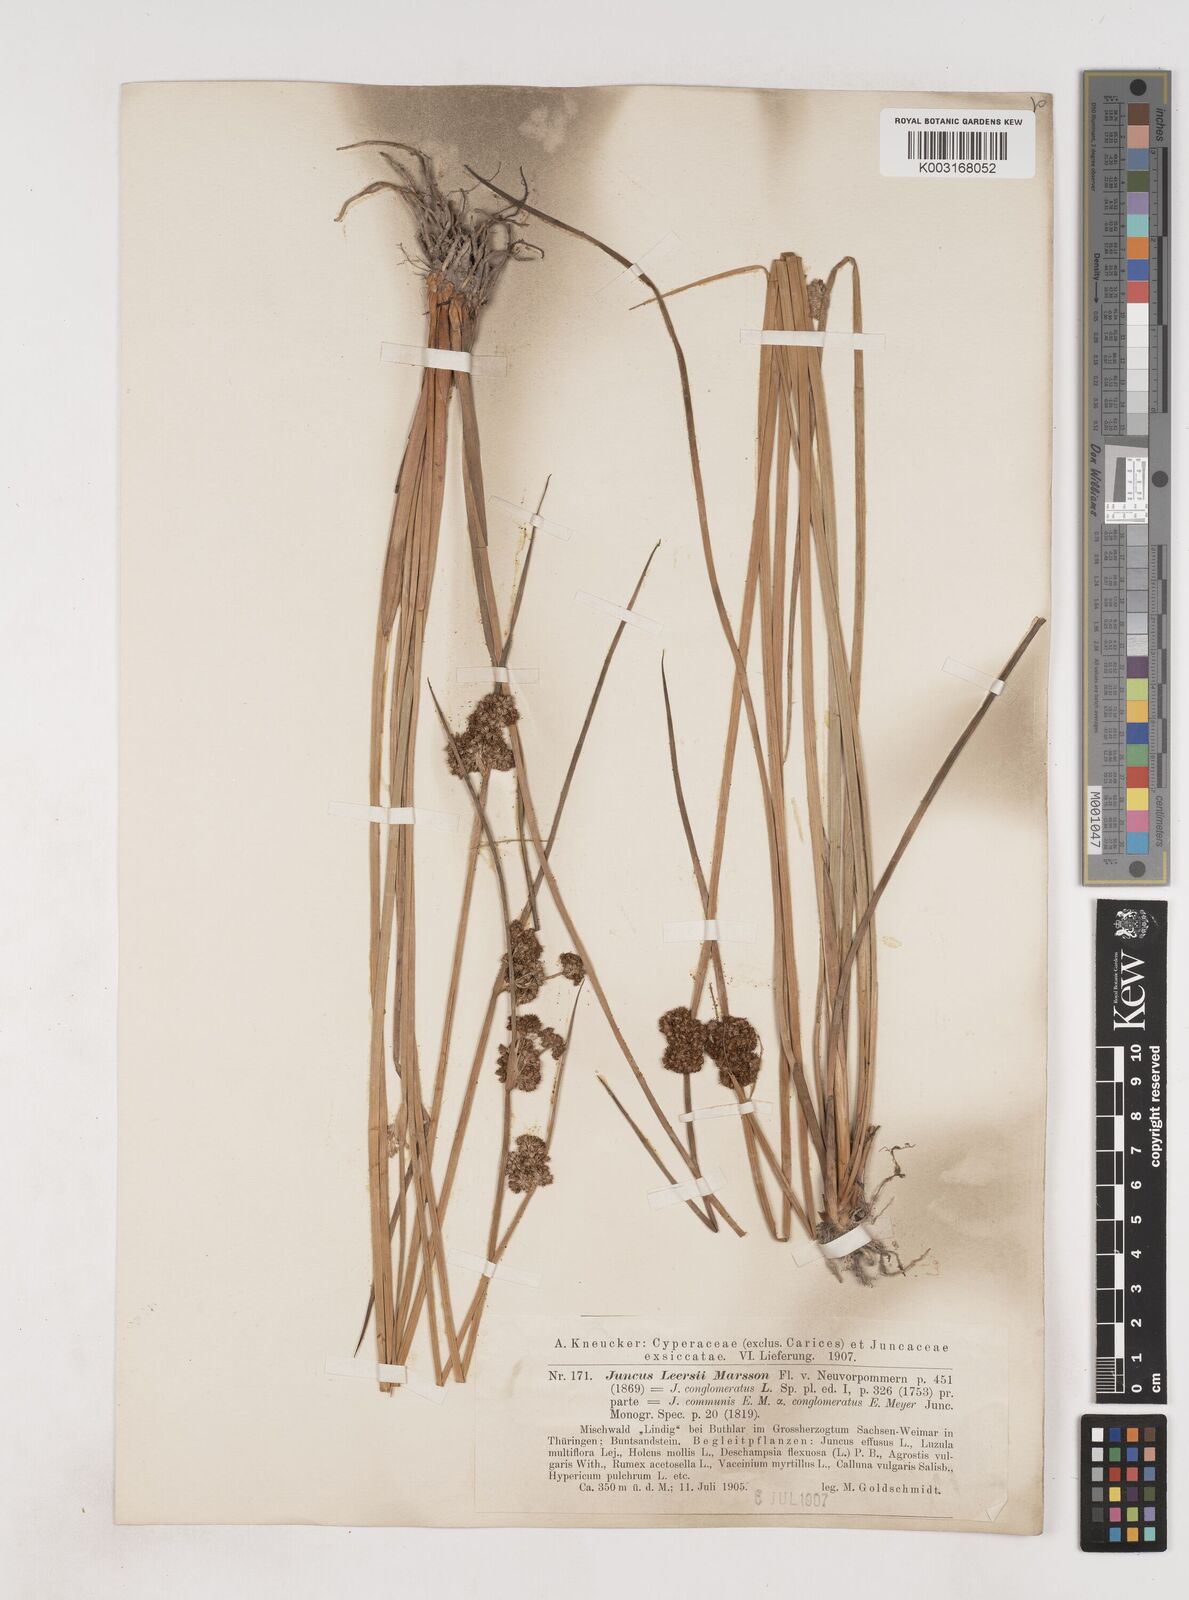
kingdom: Plantae
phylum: Tracheophyta
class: Liliopsida
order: Poales
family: Juncaceae
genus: Juncus
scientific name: Juncus conglomeratus
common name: Compact rush
